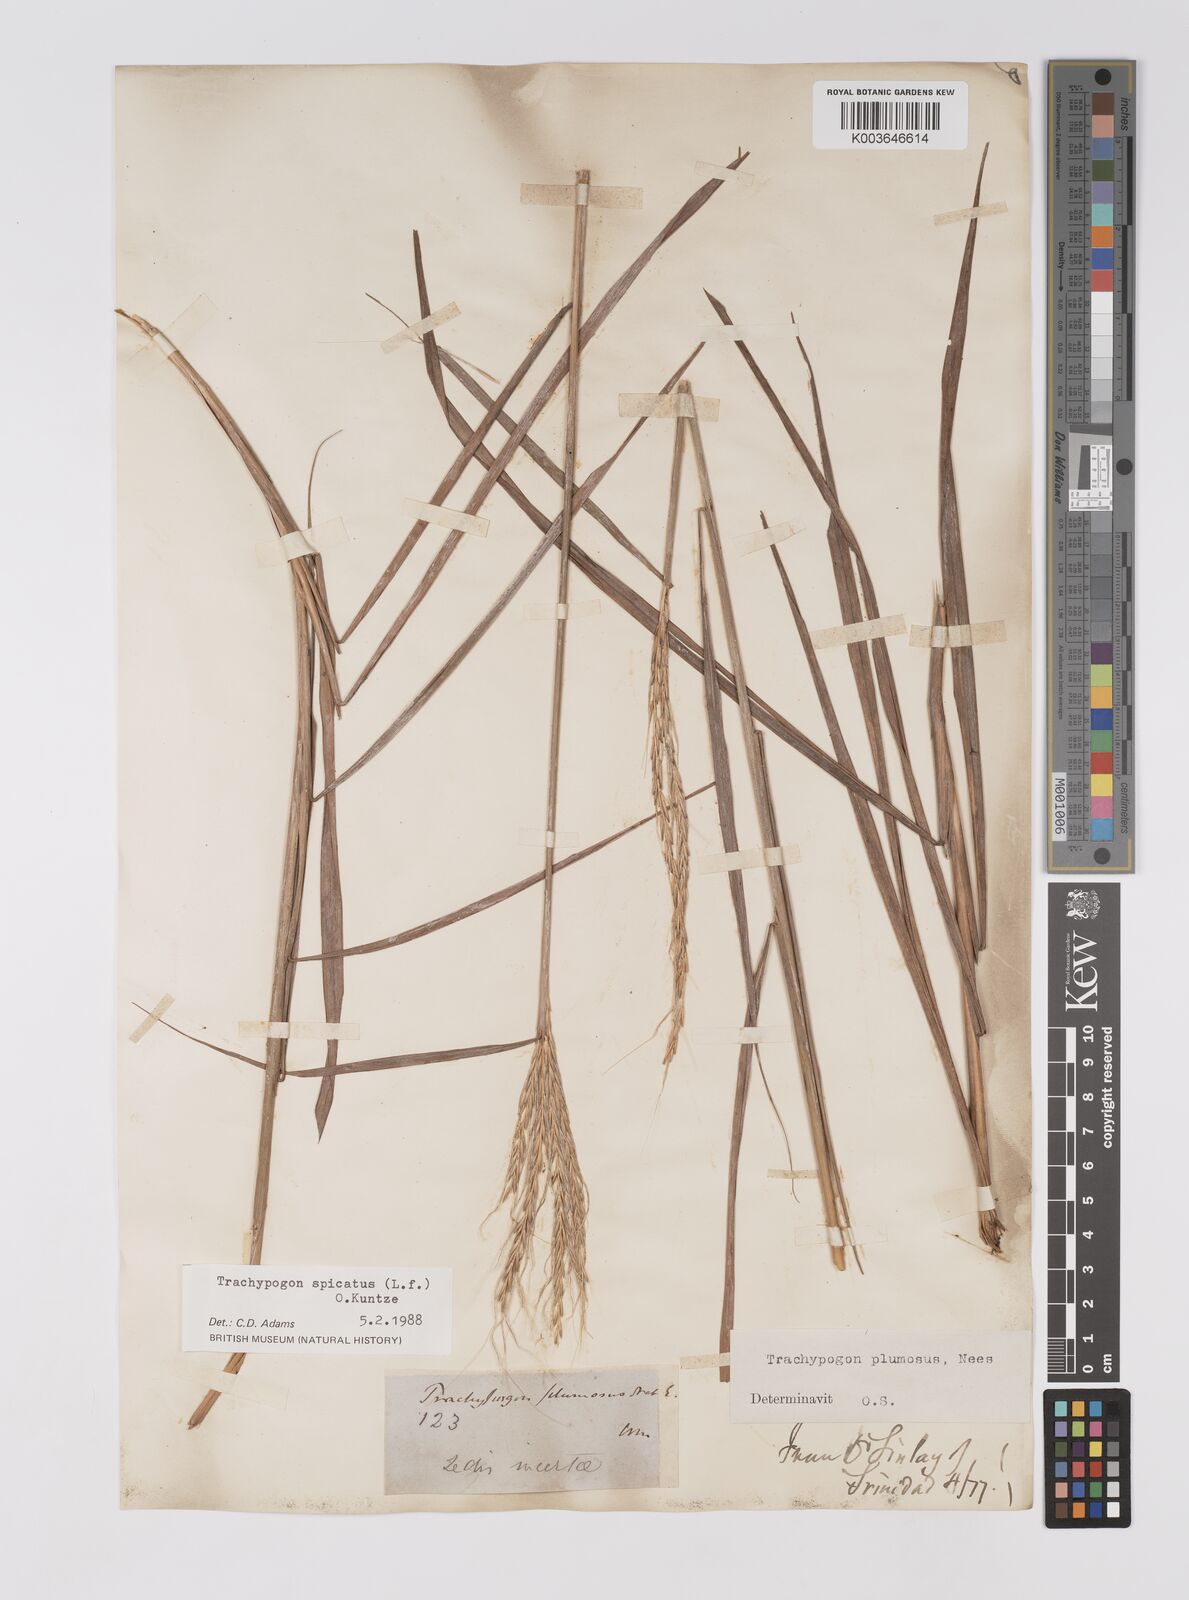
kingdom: Plantae
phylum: Tracheophyta
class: Liliopsida
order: Poales
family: Poaceae
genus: Trachypogon
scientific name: Trachypogon spicatus
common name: Crinkle-awn
